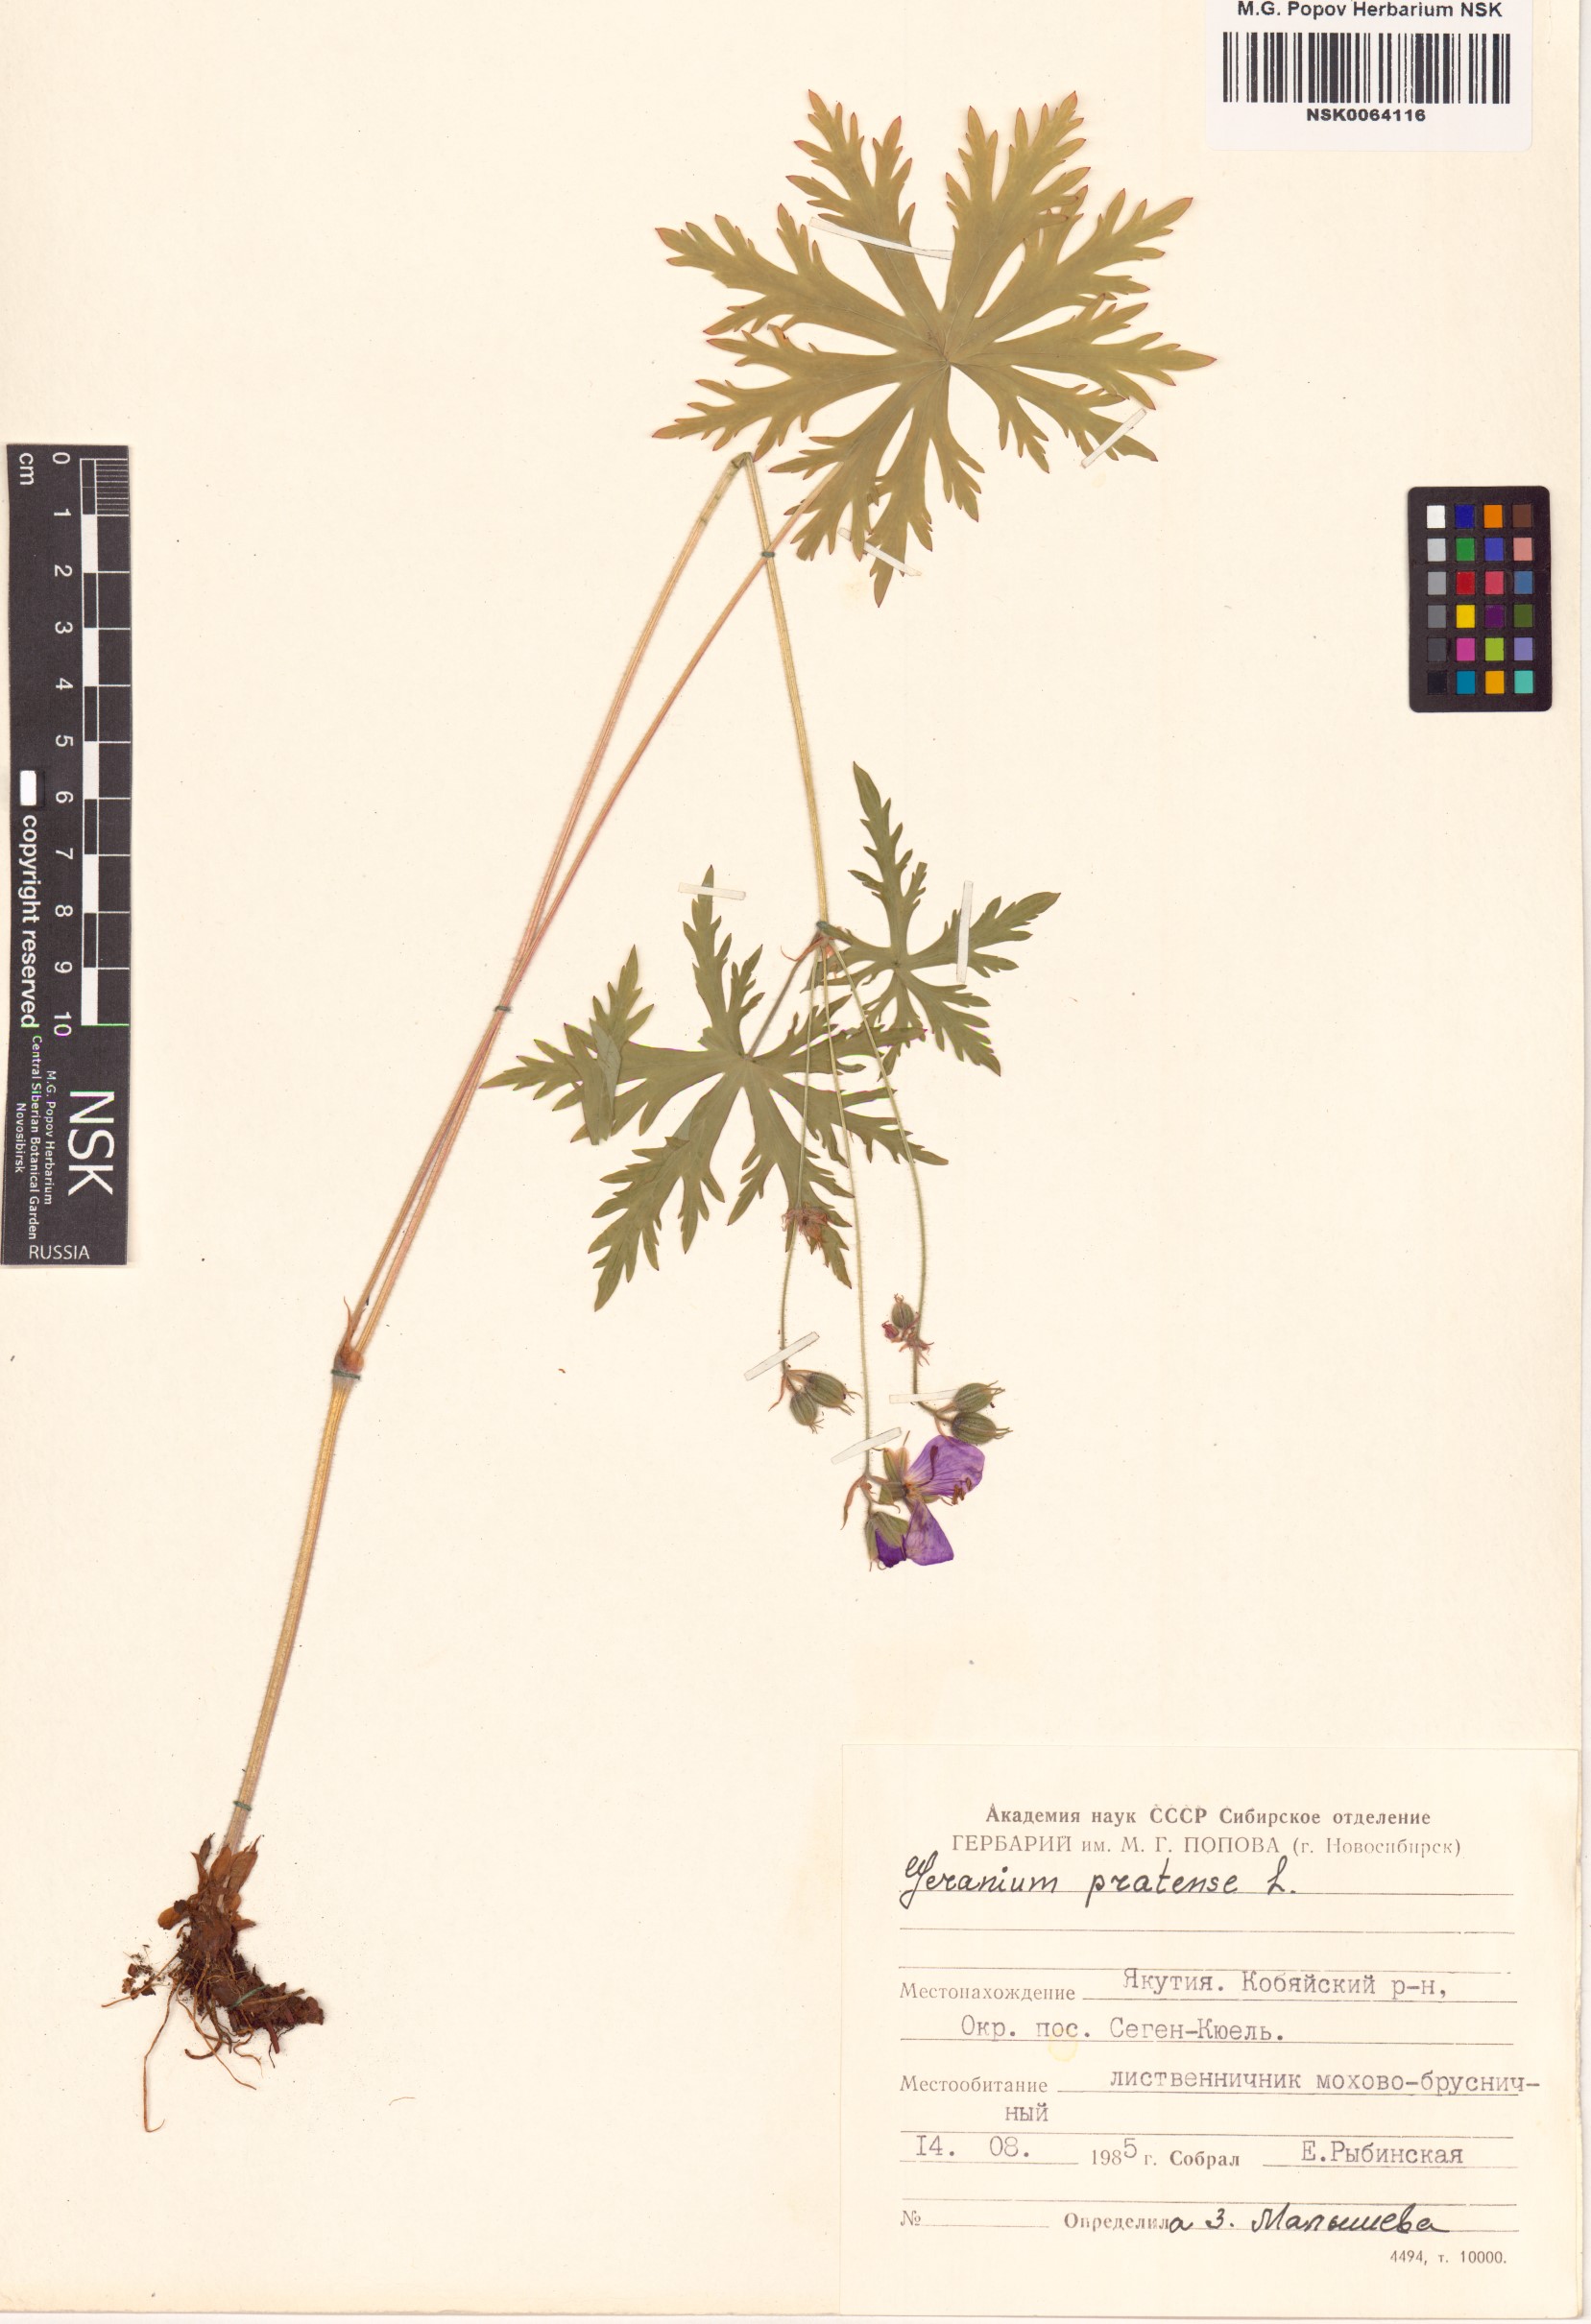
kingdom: Plantae
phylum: Tracheophyta
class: Magnoliopsida
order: Geraniales
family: Geraniaceae
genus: Geranium
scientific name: Geranium pratense
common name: Meadow crane's-bill
